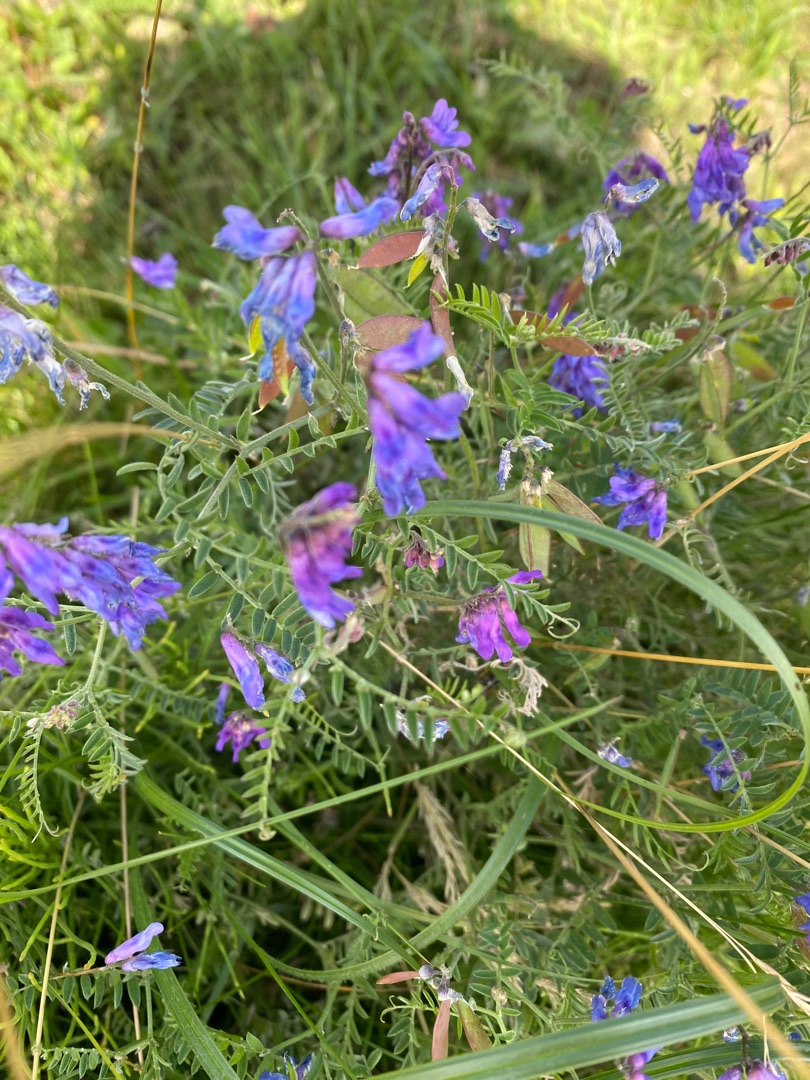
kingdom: Plantae
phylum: Tracheophyta
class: Magnoliopsida
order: Fabales
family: Fabaceae
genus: Vicia
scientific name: Vicia cracca
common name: Muse-vikke
